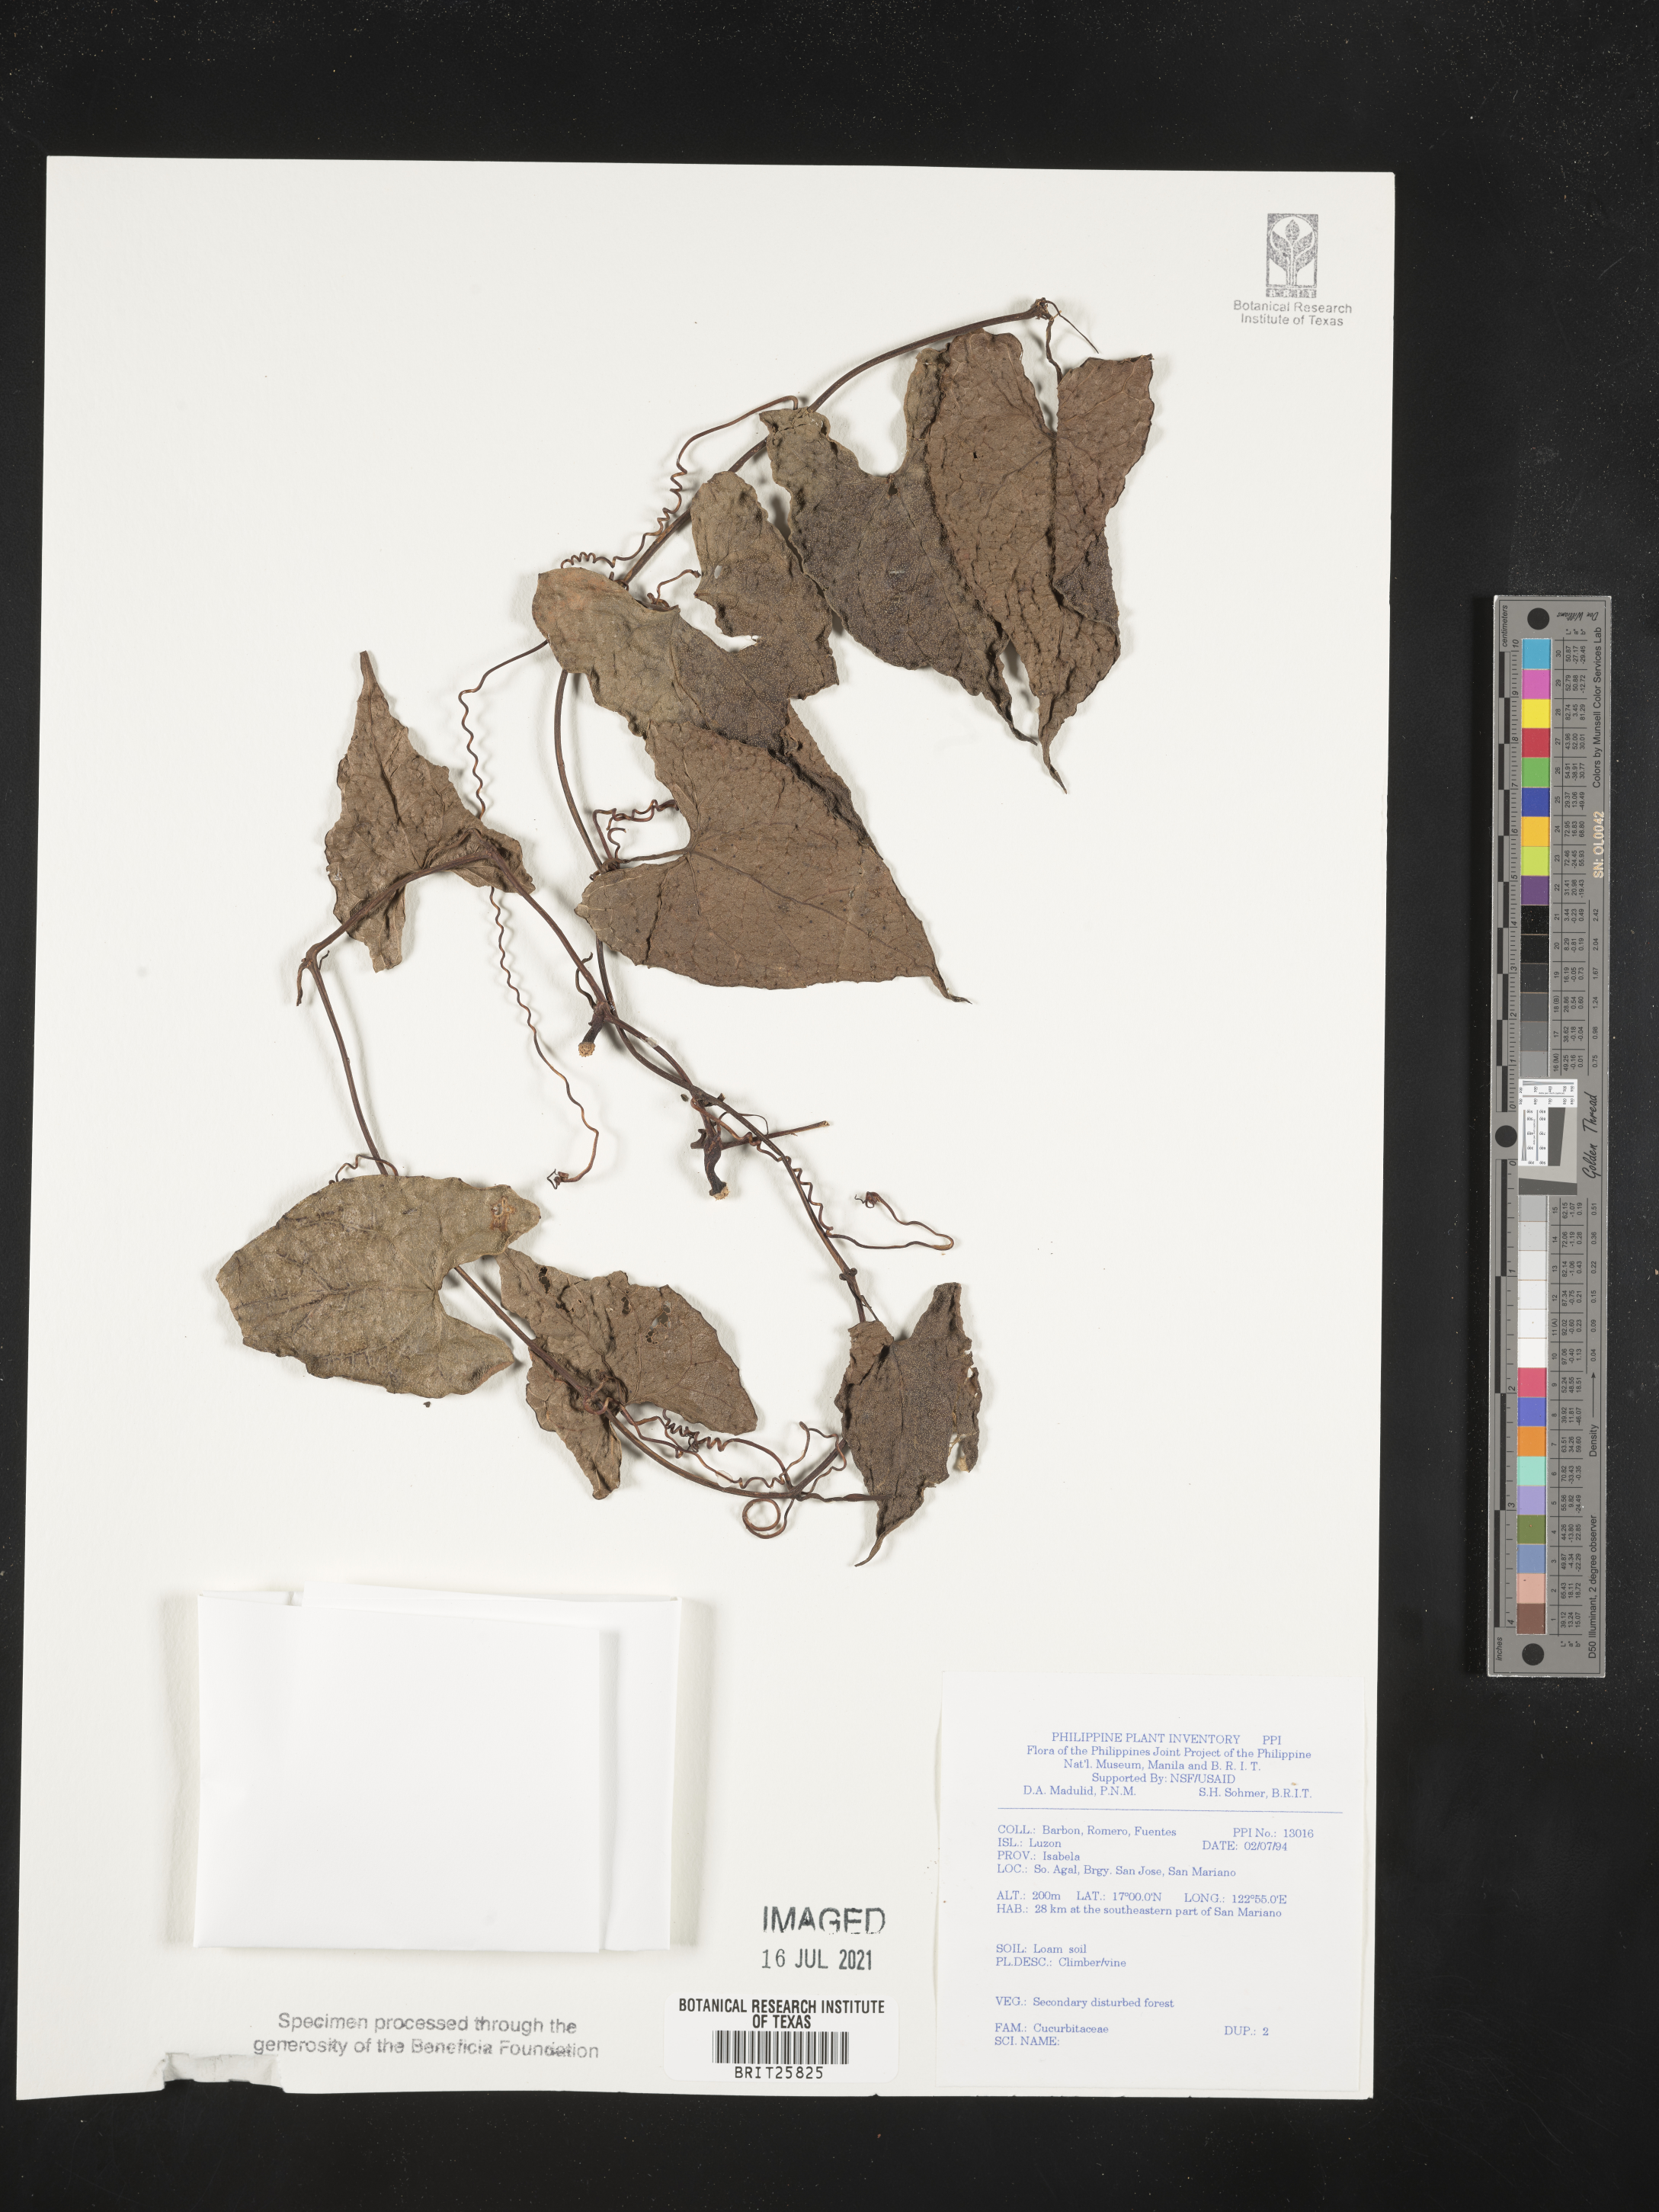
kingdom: Plantae
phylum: Tracheophyta
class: Magnoliopsida
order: Cucurbitales
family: Cucurbitaceae
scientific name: Cucurbitaceae
